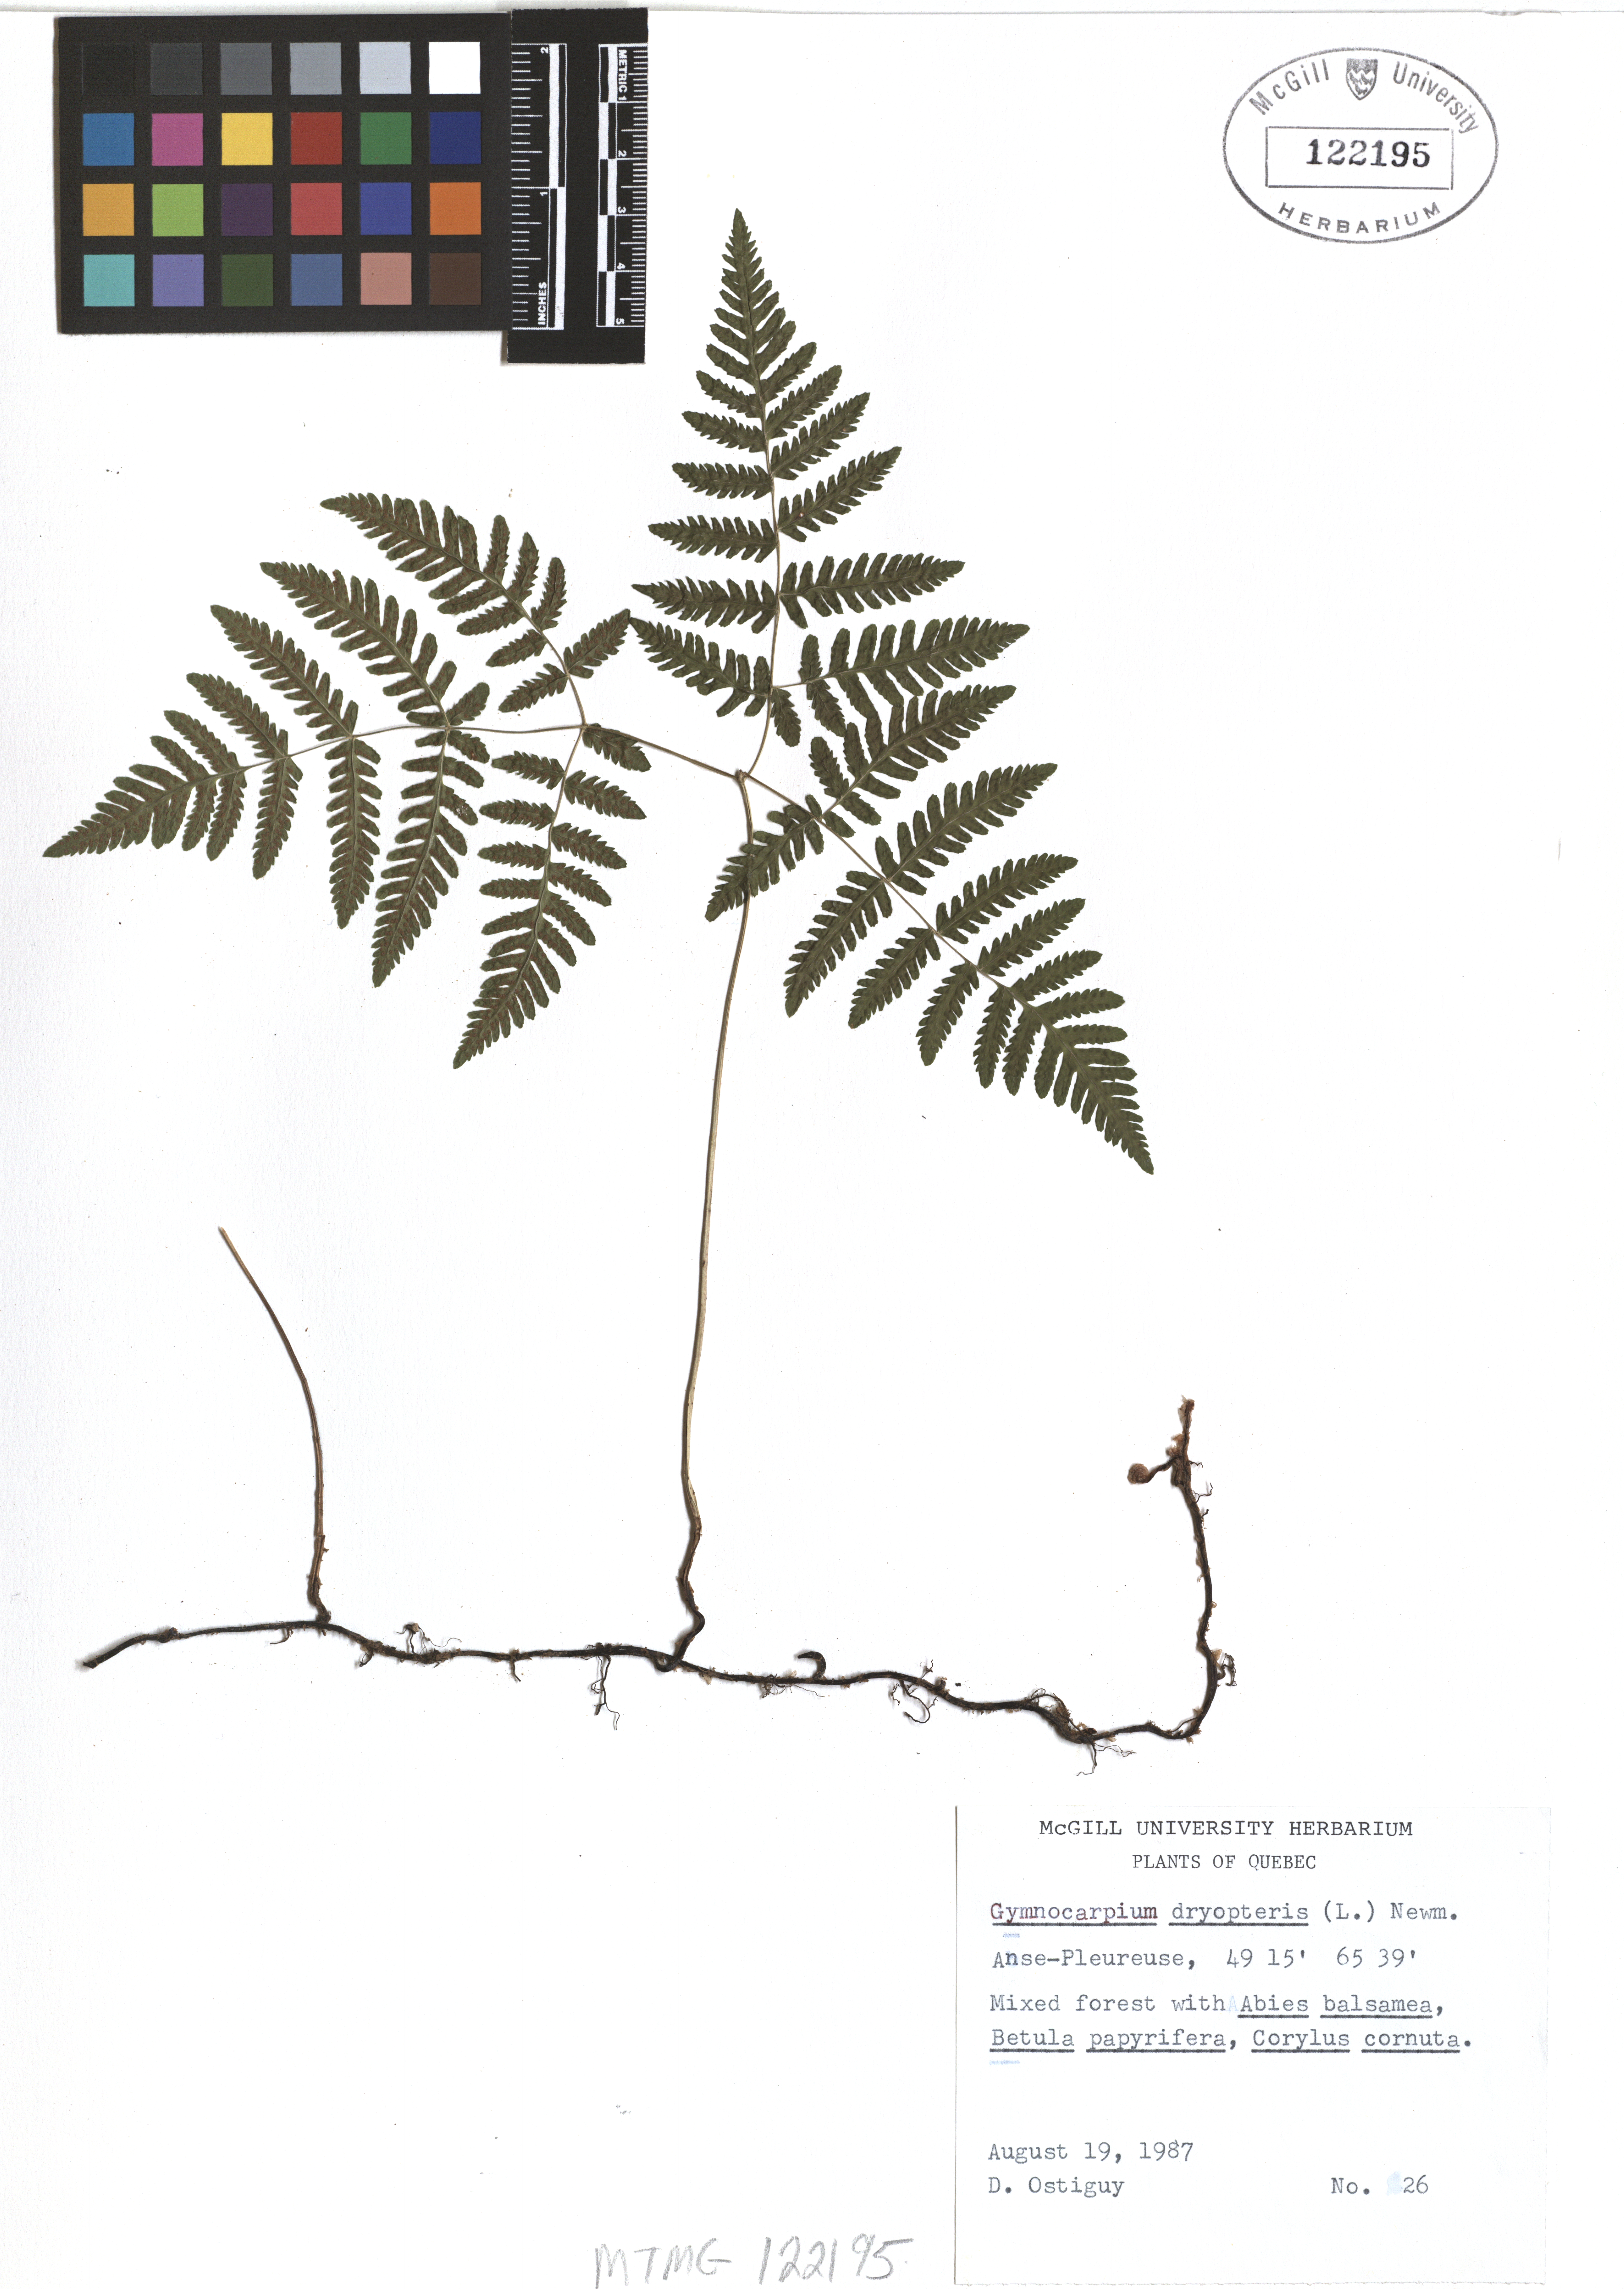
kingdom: Plantae
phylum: Tracheophyta
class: Polypodiopsida
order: Polypodiales
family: Cystopteridaceae
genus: Gymnocarpium
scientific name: Gymnocarpium dryopteris
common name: Oak fern
